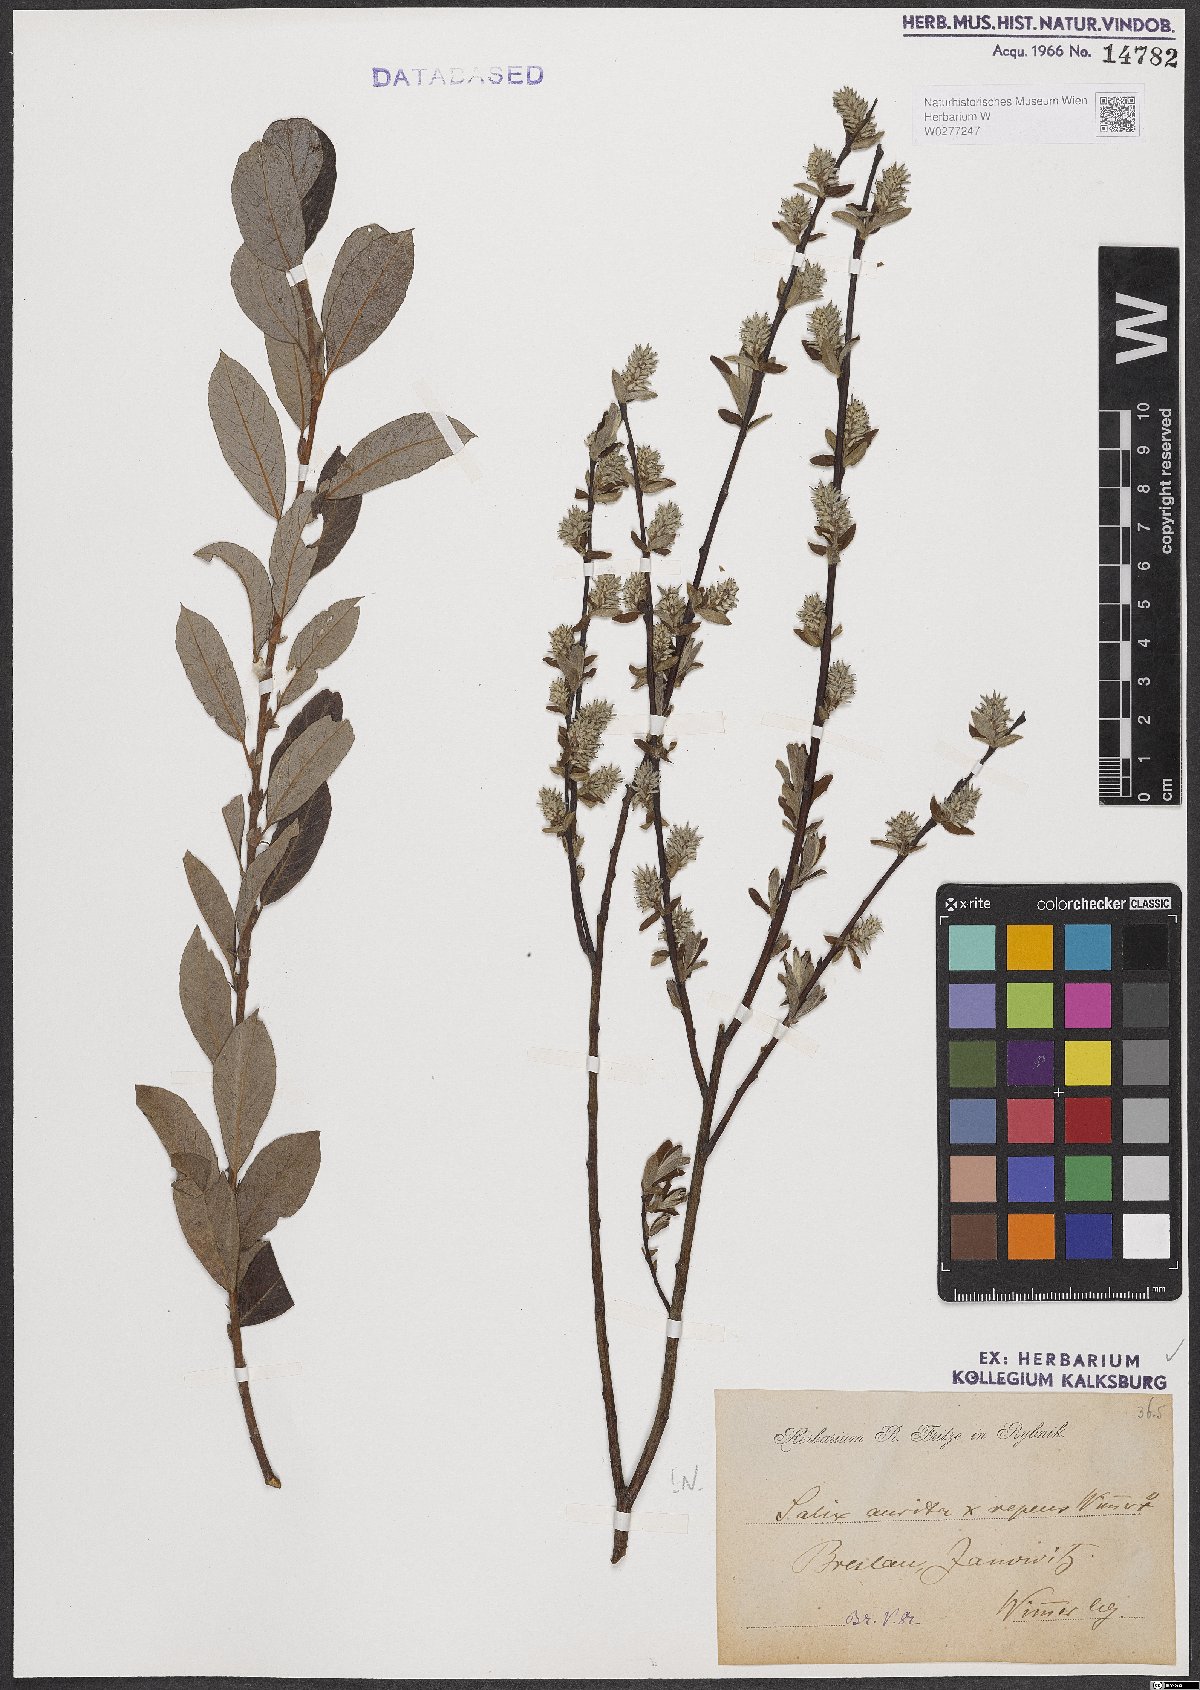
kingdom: Plantae
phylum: Tracheophyta
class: Magnoliopsida
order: Malpighiales
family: Salicaceae
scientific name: Salicaceae
